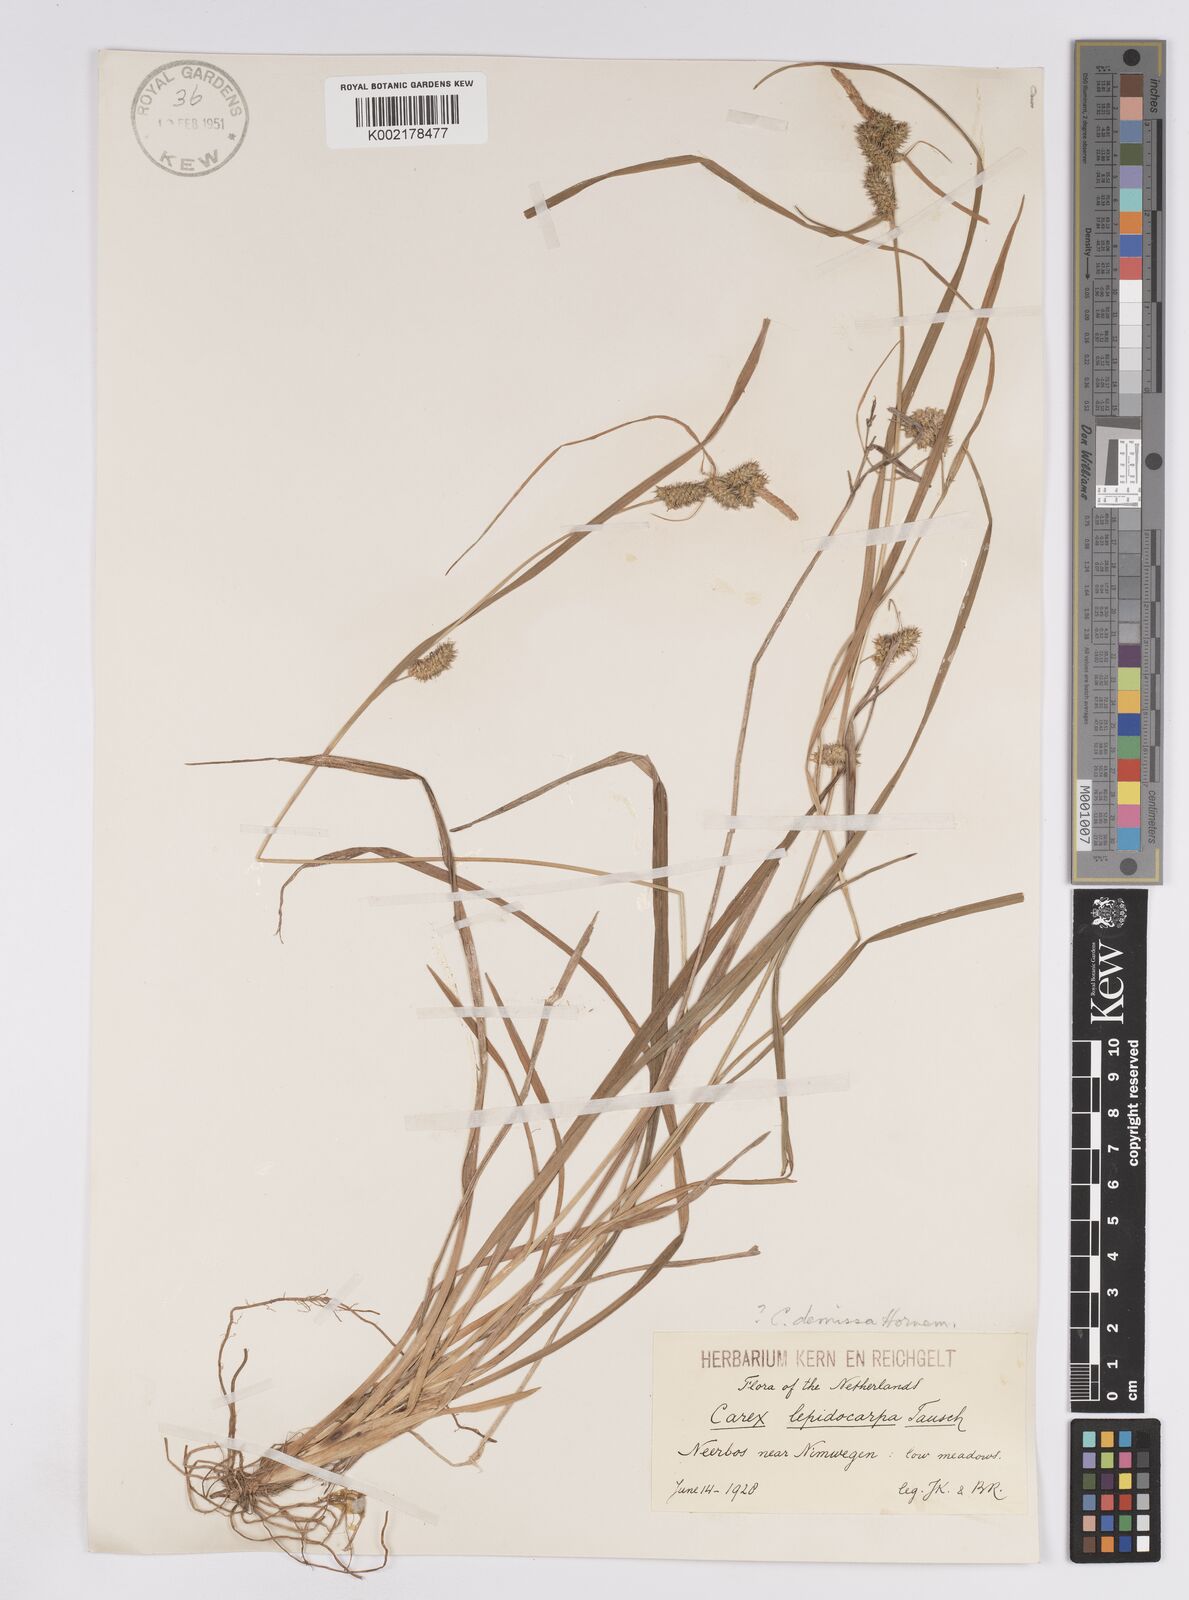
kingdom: Plantae
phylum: Tracheophyta
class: Liliopsida
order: Poales
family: Cyperaceae
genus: Carex
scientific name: Carex demissa
